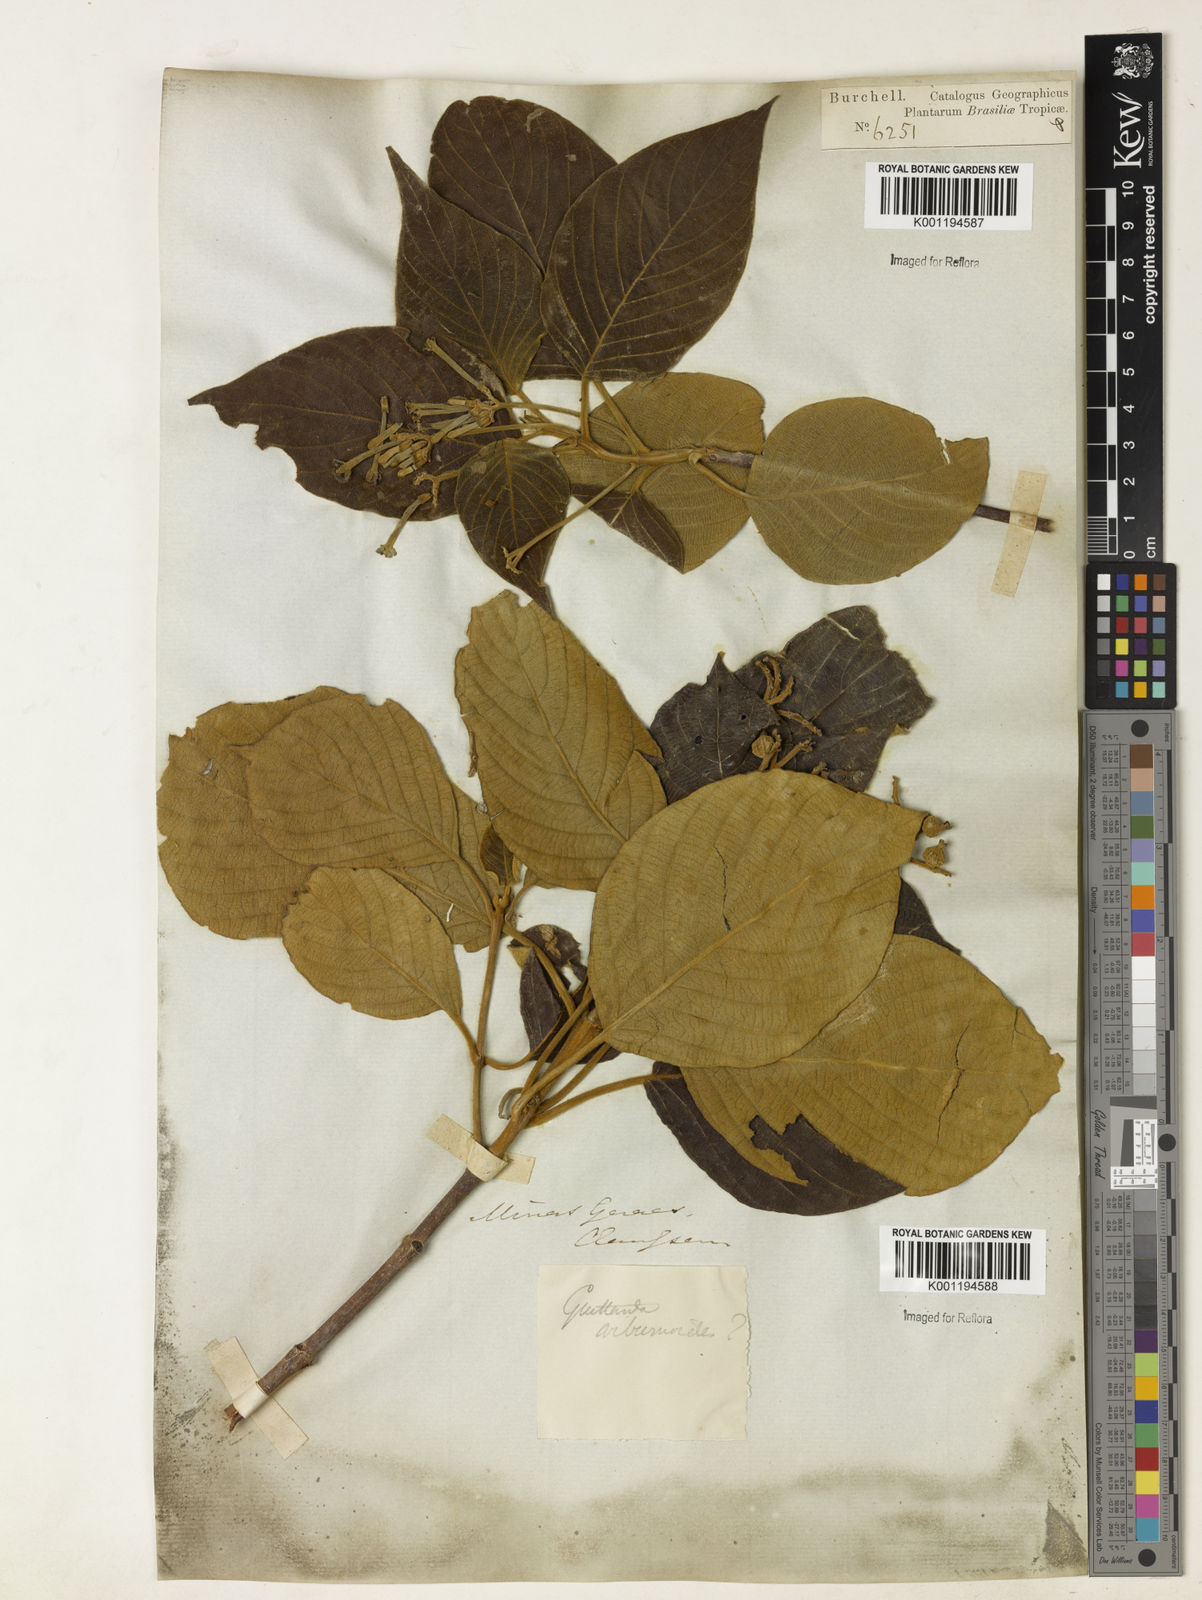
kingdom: Plantae
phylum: Tracheophyta
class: Magnoliopsida
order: Gentianales
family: Rubiaceae
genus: Guettarda
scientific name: Guettarda viburnoides
